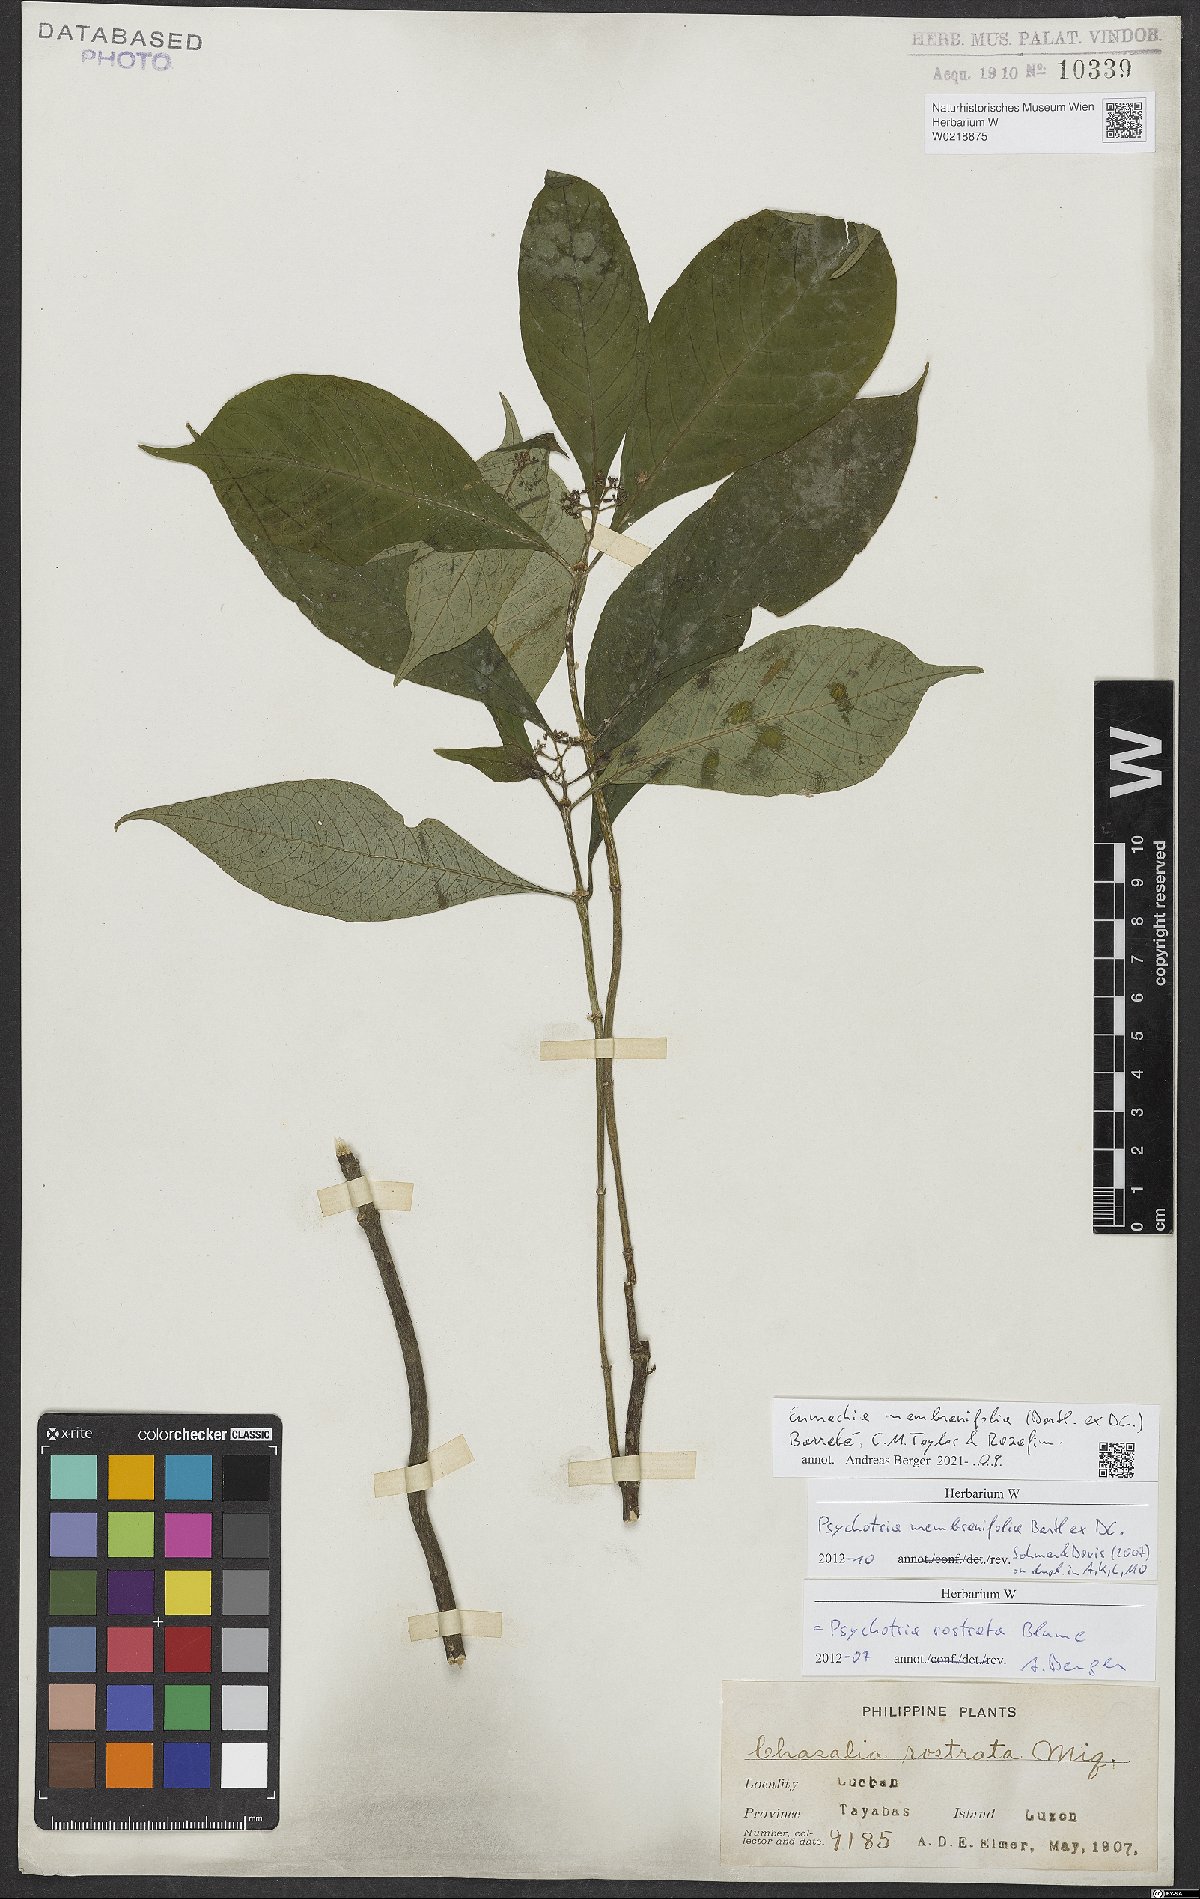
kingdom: Plantae
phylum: Tracheophyta
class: Magnoliopsida
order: Gentianales
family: Rubiaceae
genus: Eumachia
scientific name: Eumachia membranifolia
